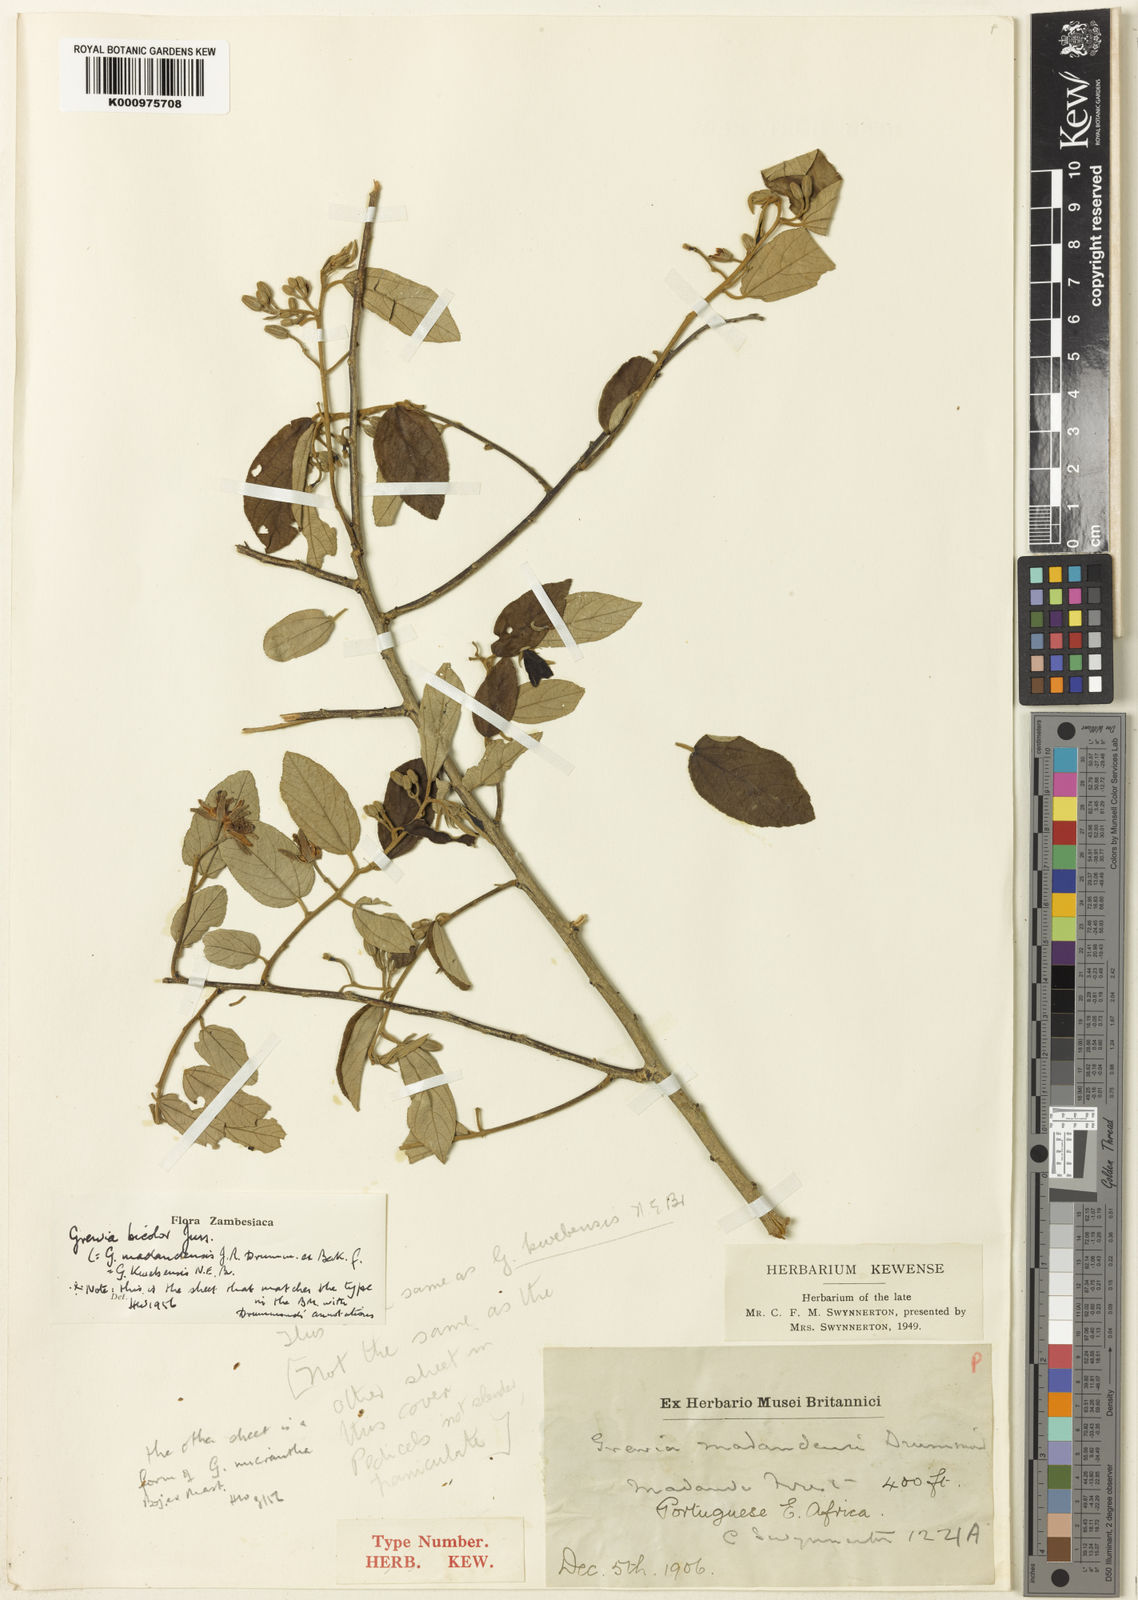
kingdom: Plantae
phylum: Tracheophyta
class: Magnoliopsida
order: Malvales
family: Malvaceae
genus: Grewia
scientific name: Grewia bicolor
